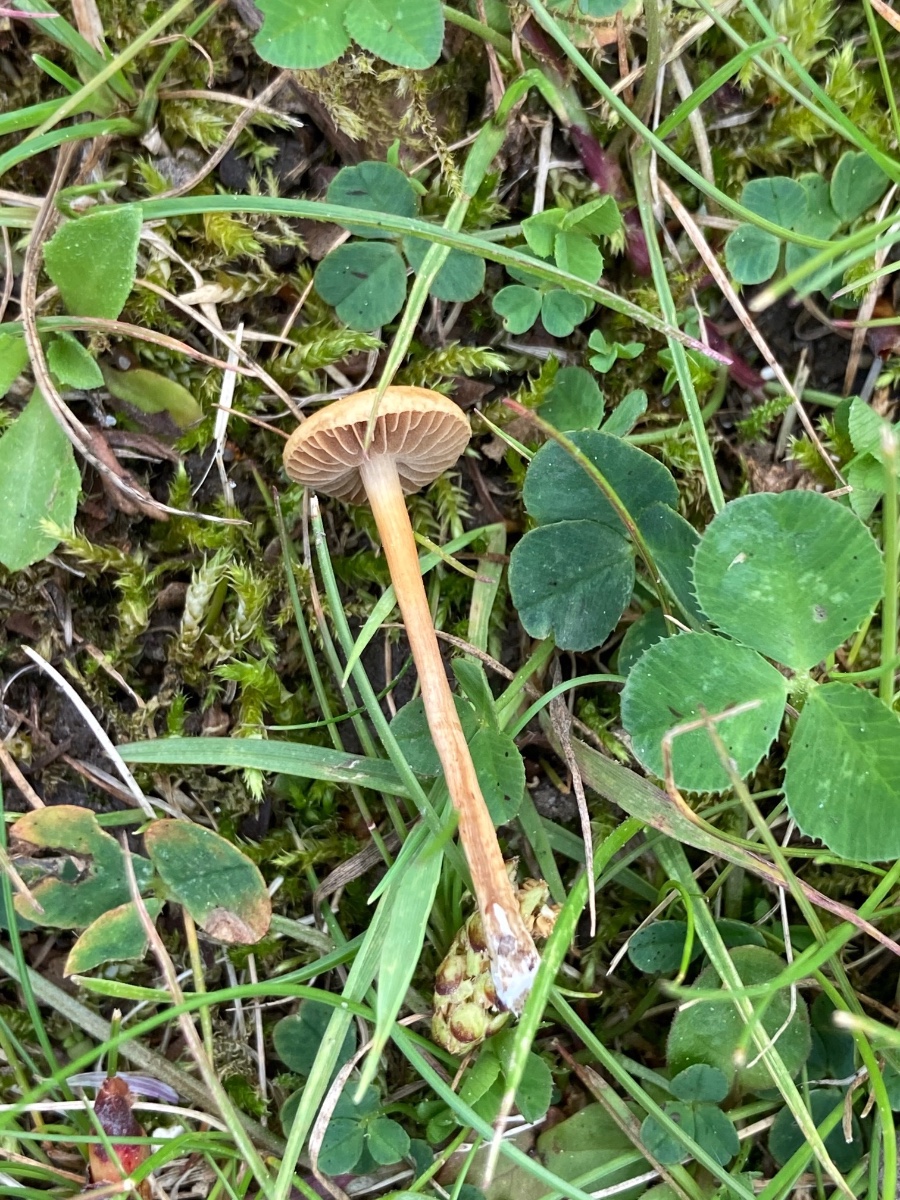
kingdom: Fungi
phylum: Basidiomycota
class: Agaricomycetes
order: Agaricales
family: Strophariaceae
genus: Agrocybe
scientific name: Agrocybe pediades
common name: almindelig agerhat
